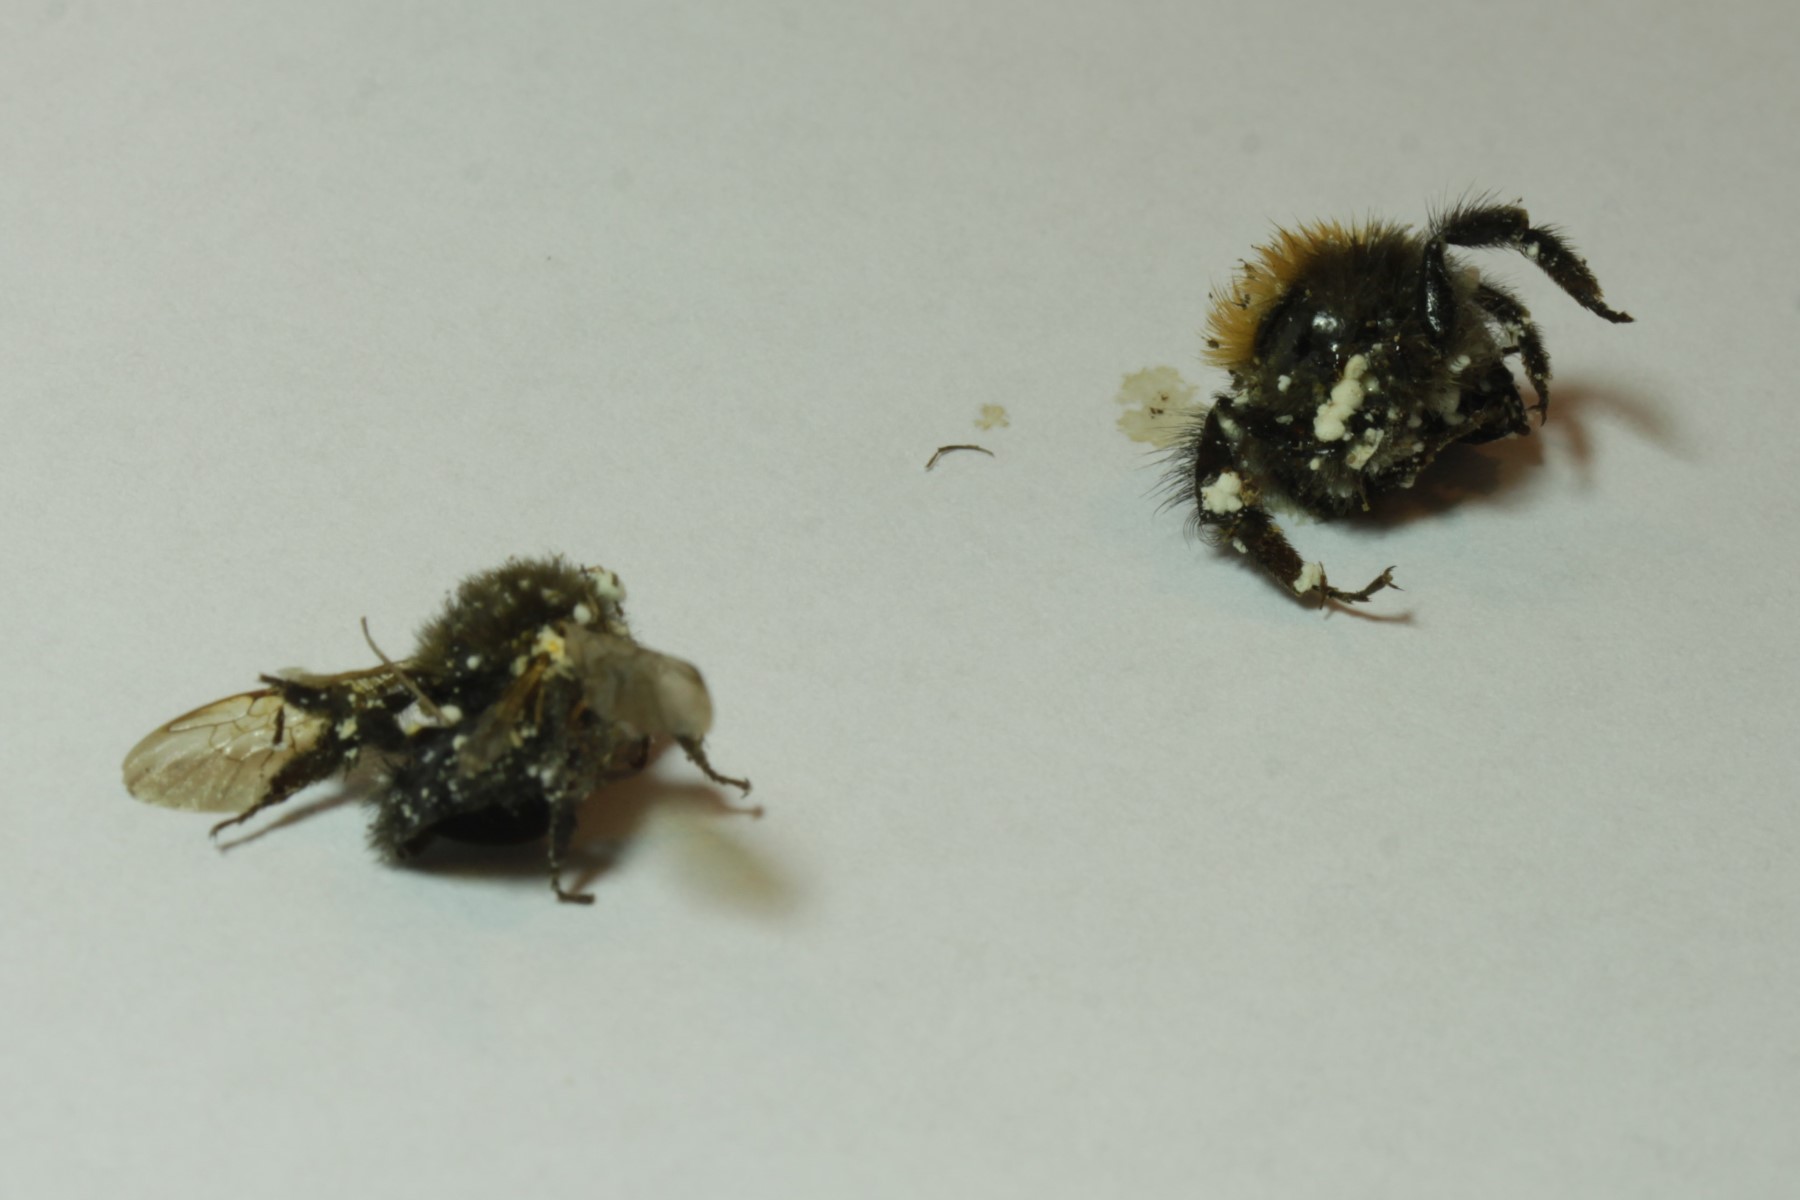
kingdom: Fungi
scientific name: Fungi
